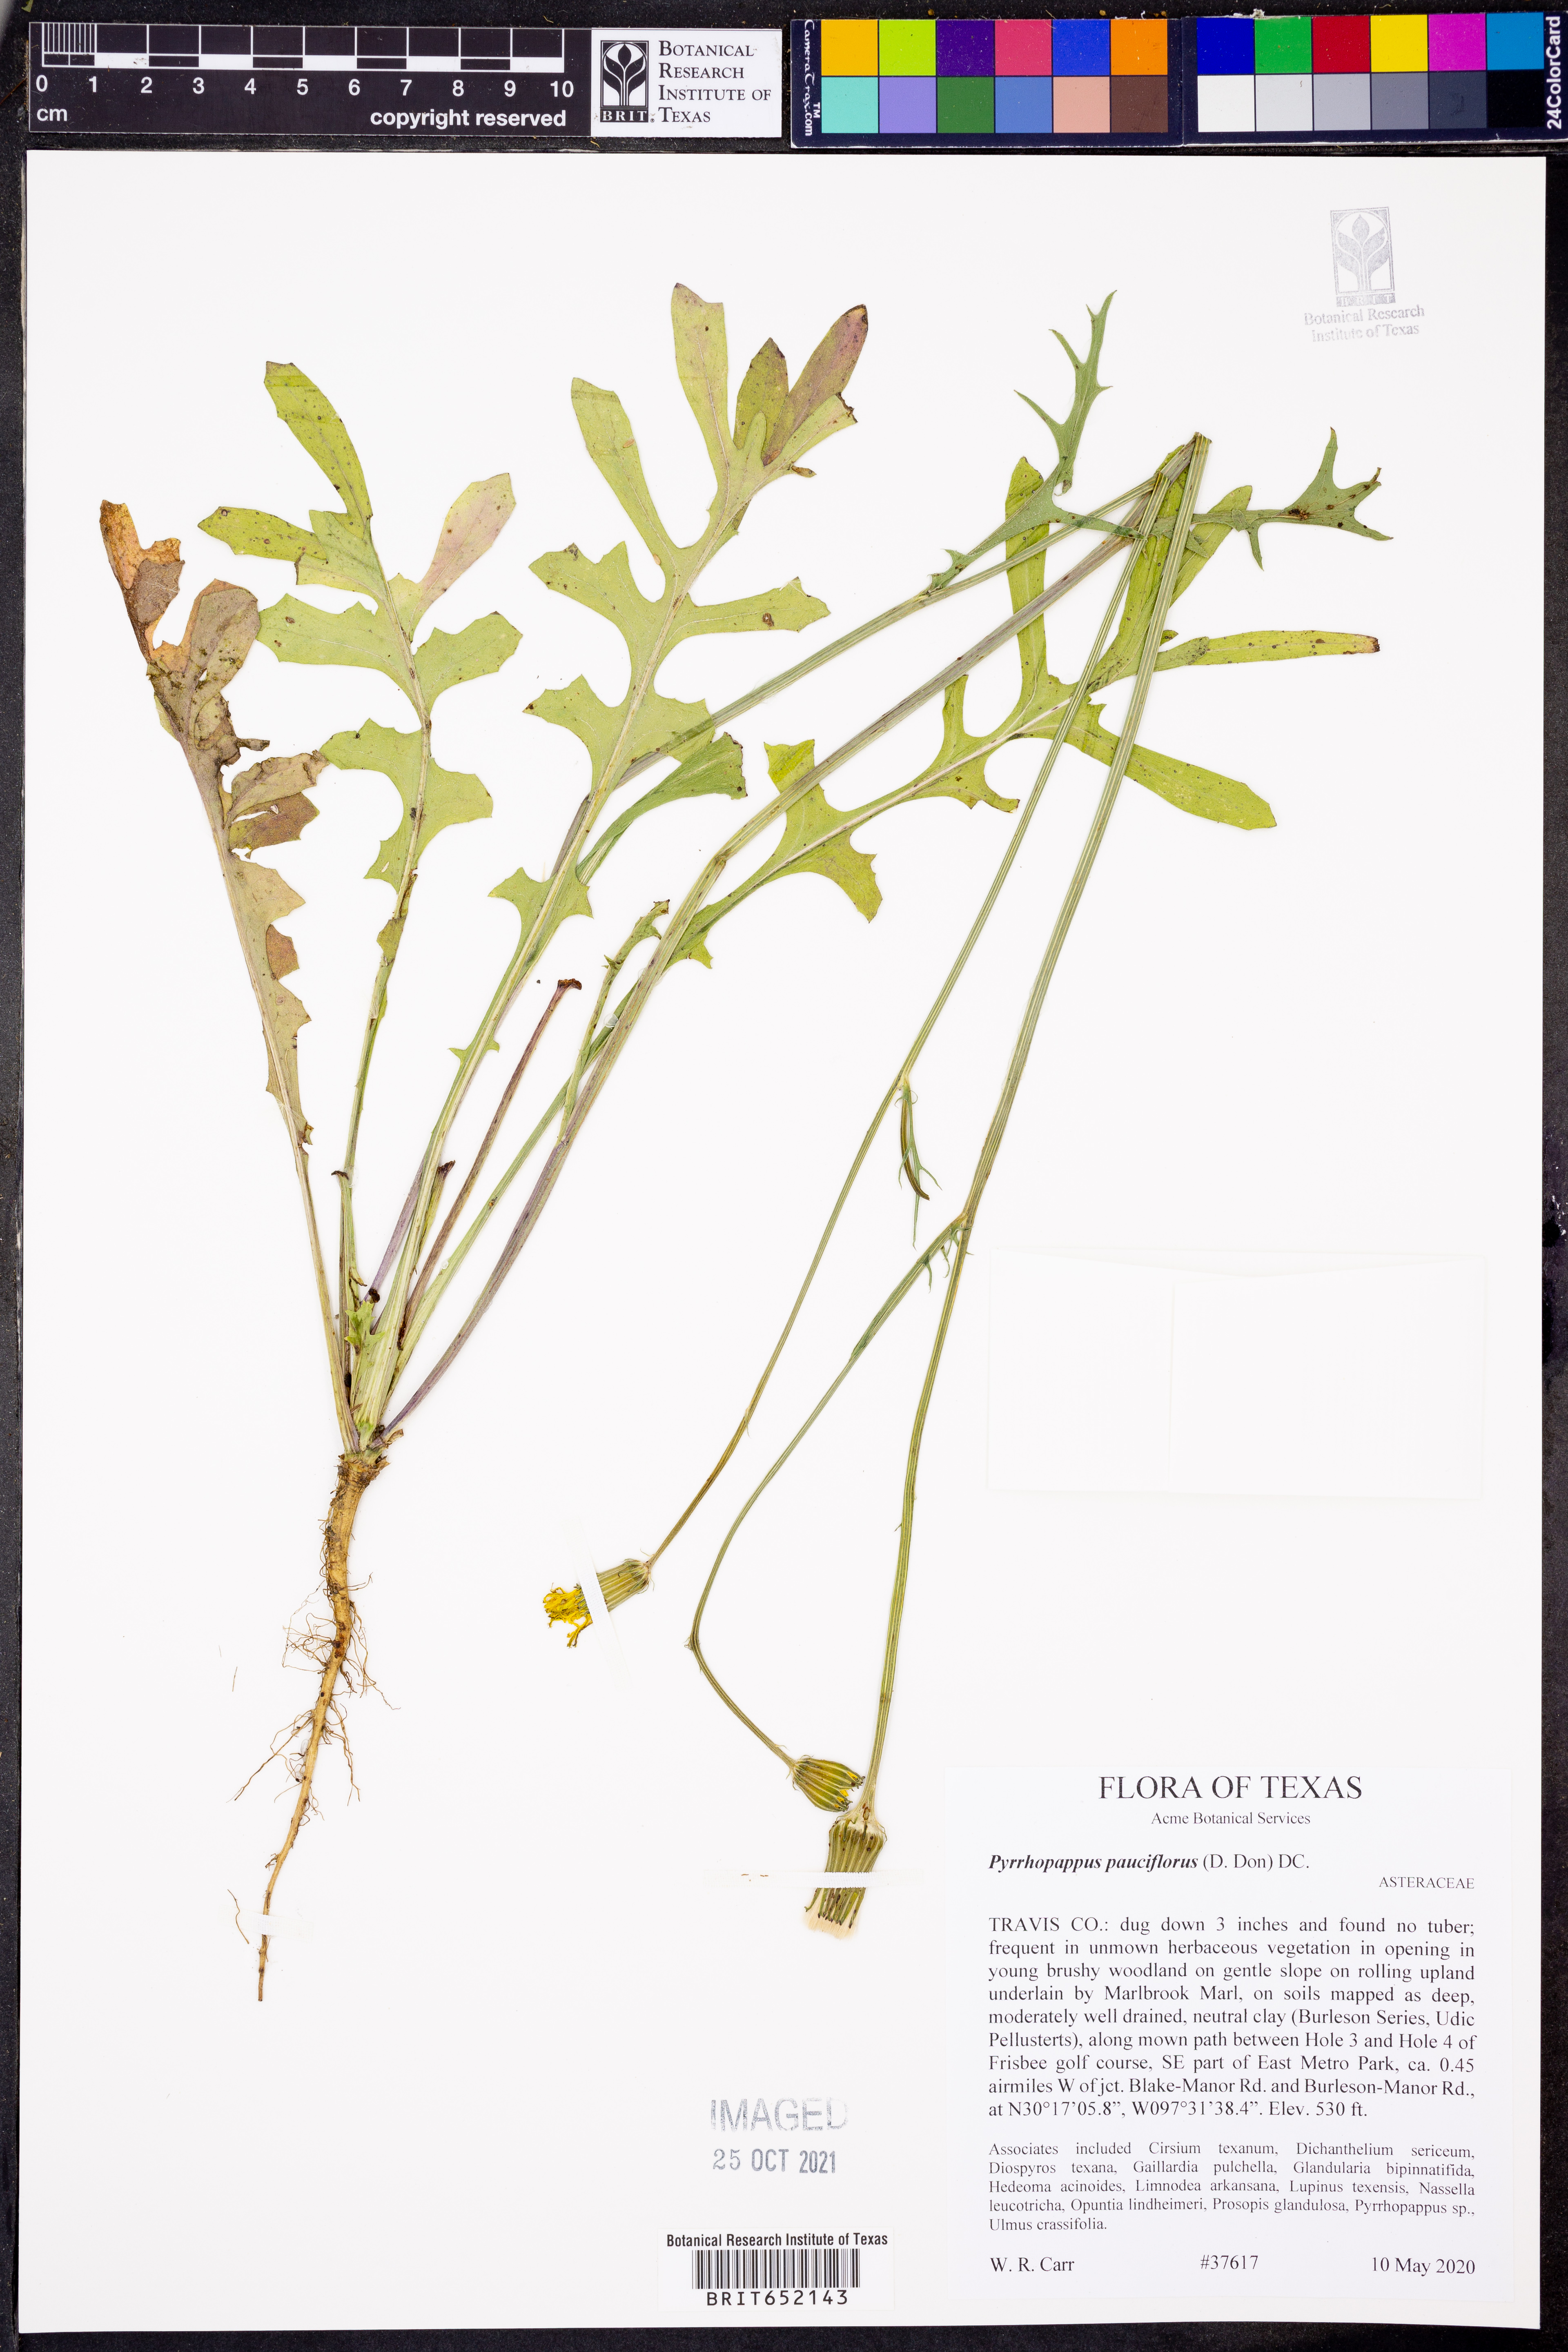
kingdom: Plantae
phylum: Tracheophyta
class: Magnoliopsida
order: Asterales
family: Asteraceae
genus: Pyrrhopappus
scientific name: Pyrrhopappus pauciflorus
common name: Texas false dandelion
